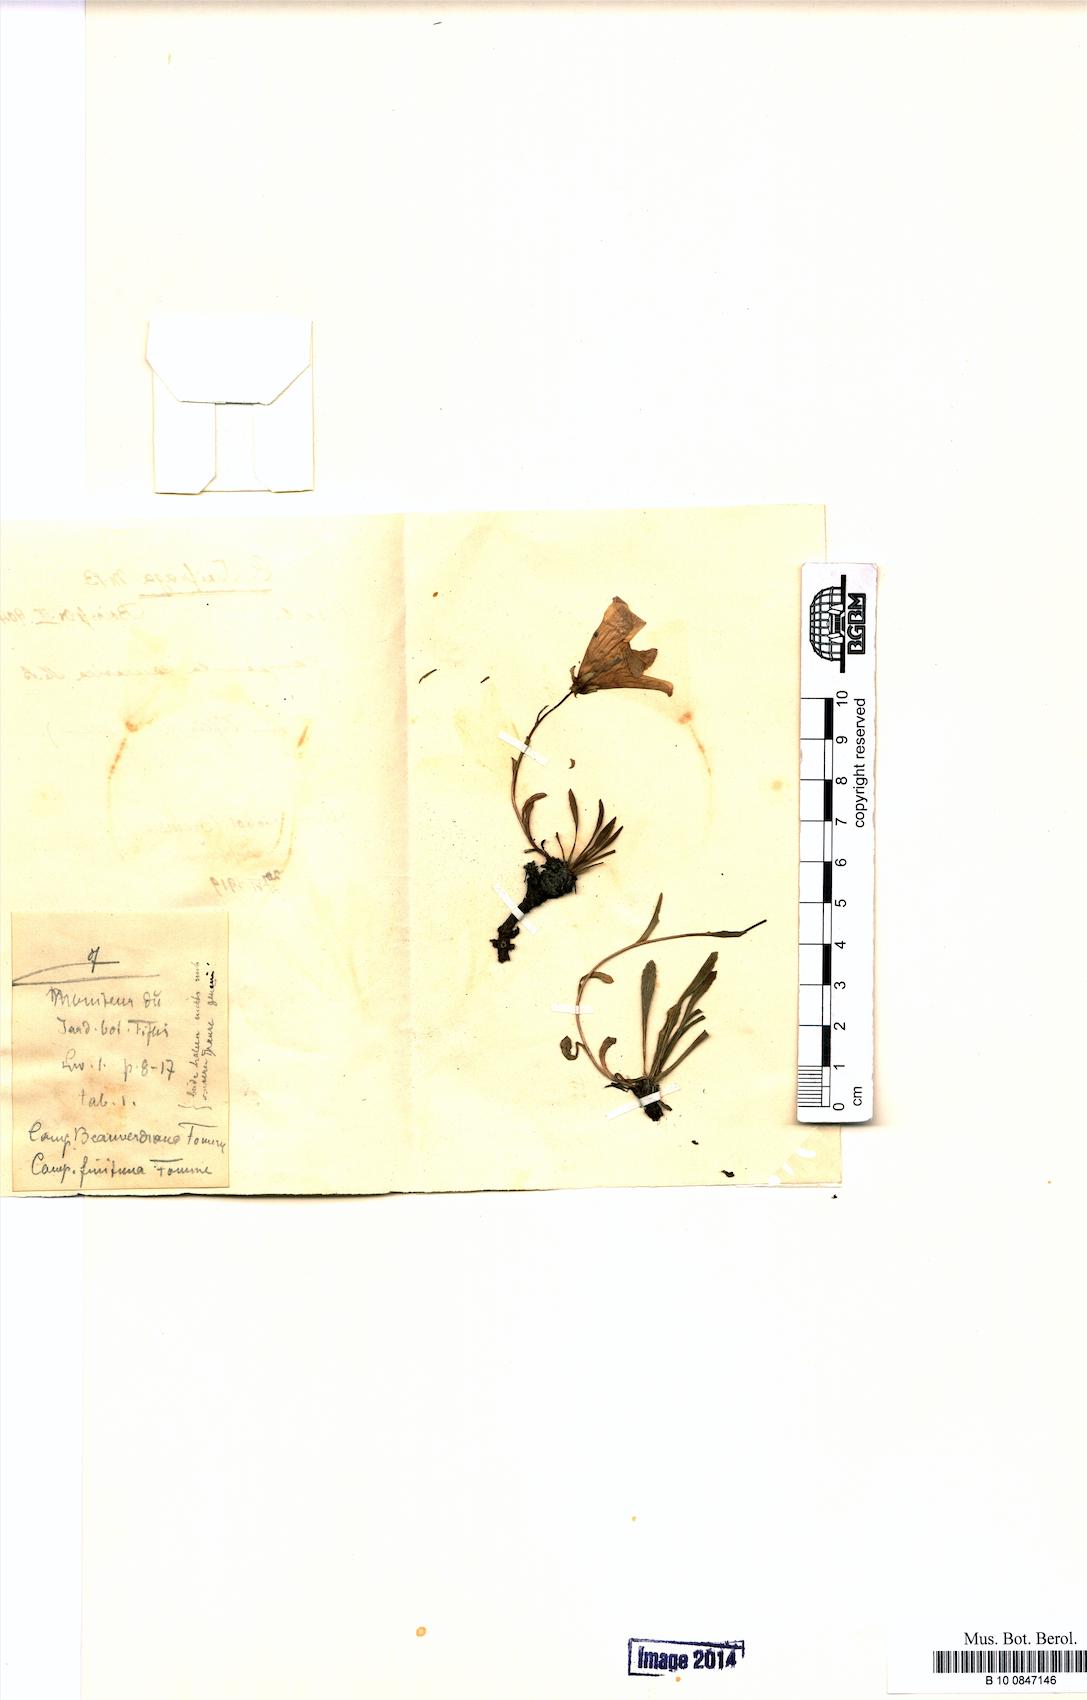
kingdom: Plantae
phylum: Tracheophyta
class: Magnoliopsida
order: Asterales
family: Campanulaceae
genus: Campanula
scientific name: Campanula saxifraga
